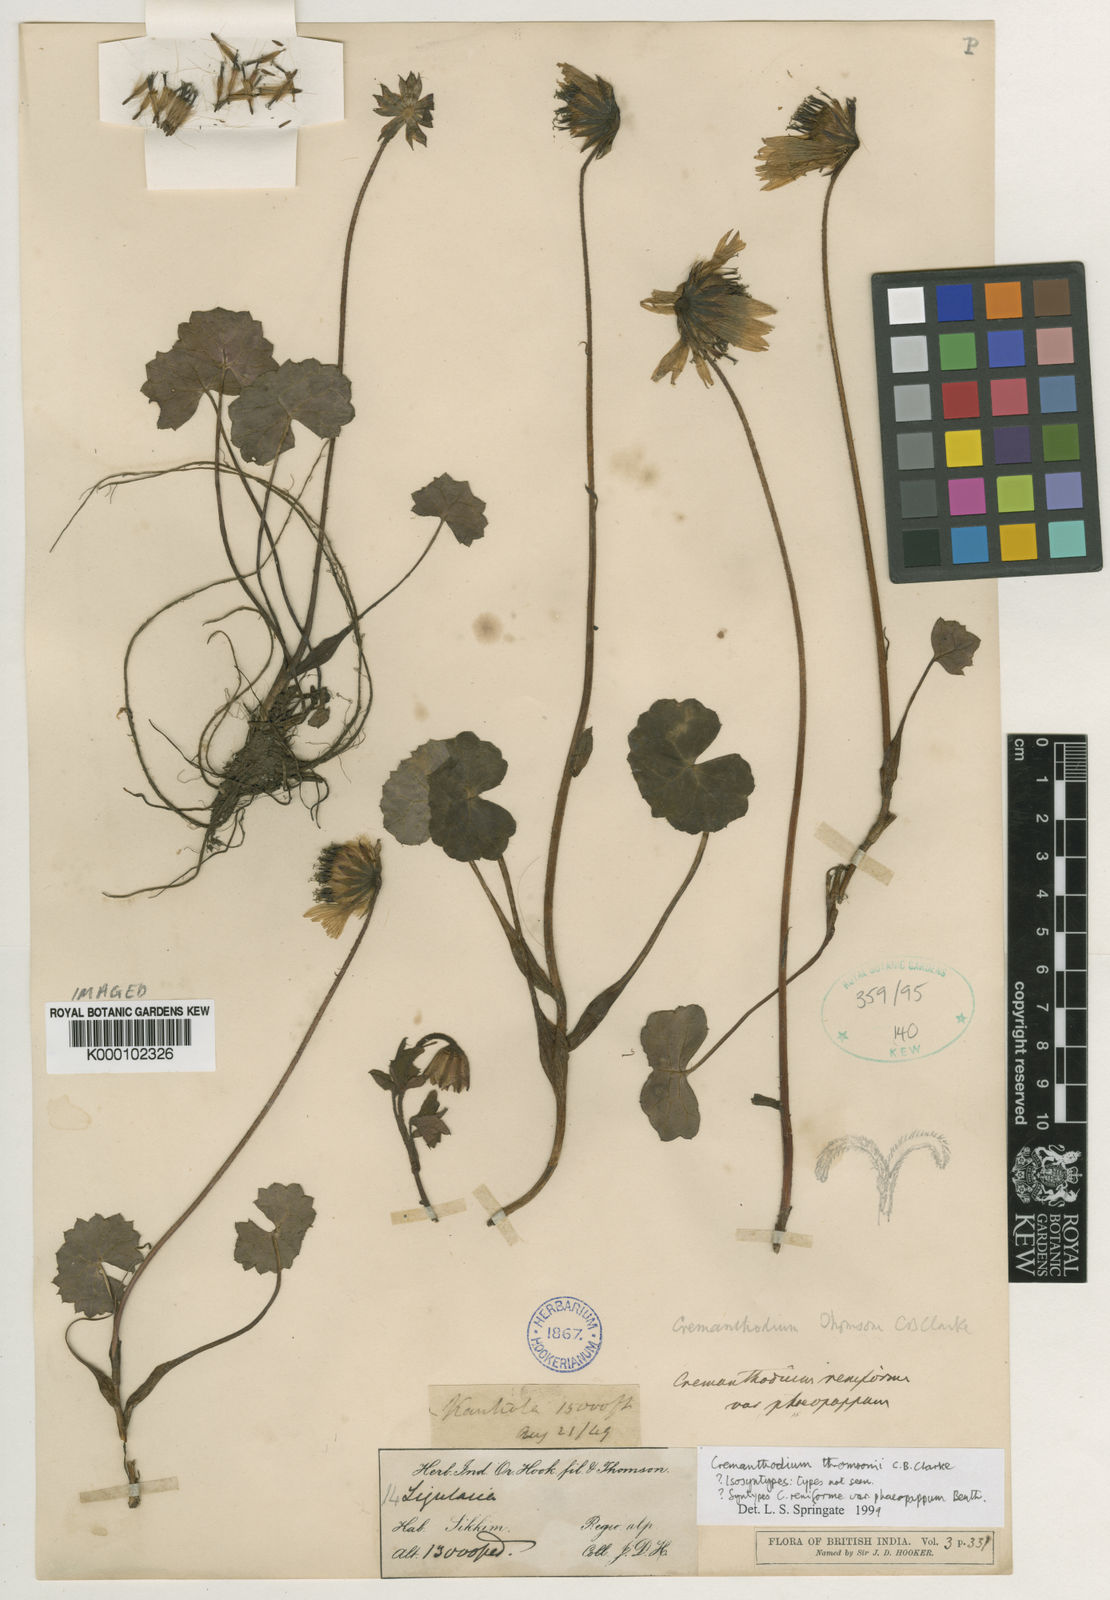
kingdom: Plantae
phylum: Tracheophyta
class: Magnoliopsida
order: Asterales
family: Asteraceae
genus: Cremanthodium
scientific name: Cremanthodium thomsonii
